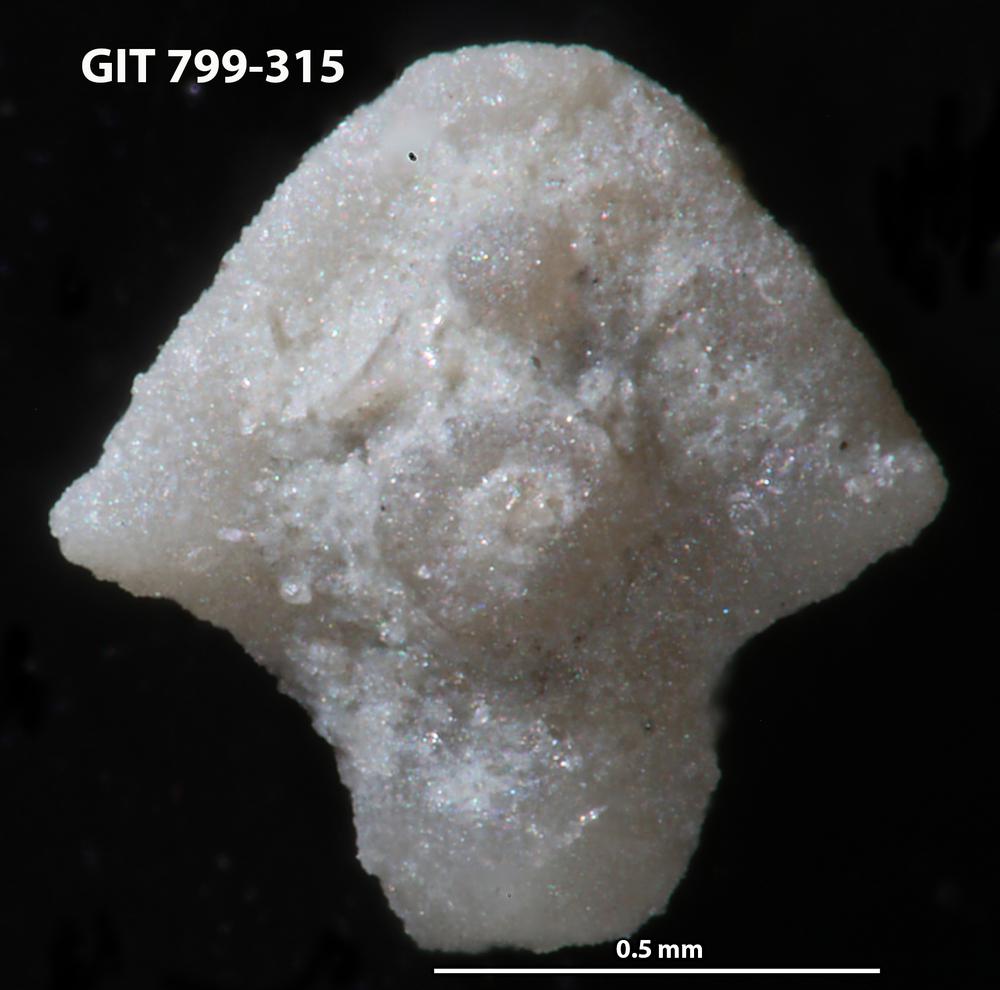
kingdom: Animalia
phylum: Echinodermata
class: Echinoidea
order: Bothriocidaroida
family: Bothriocidaridae
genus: Neobothriocidaris
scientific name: Neobothriocidaris
